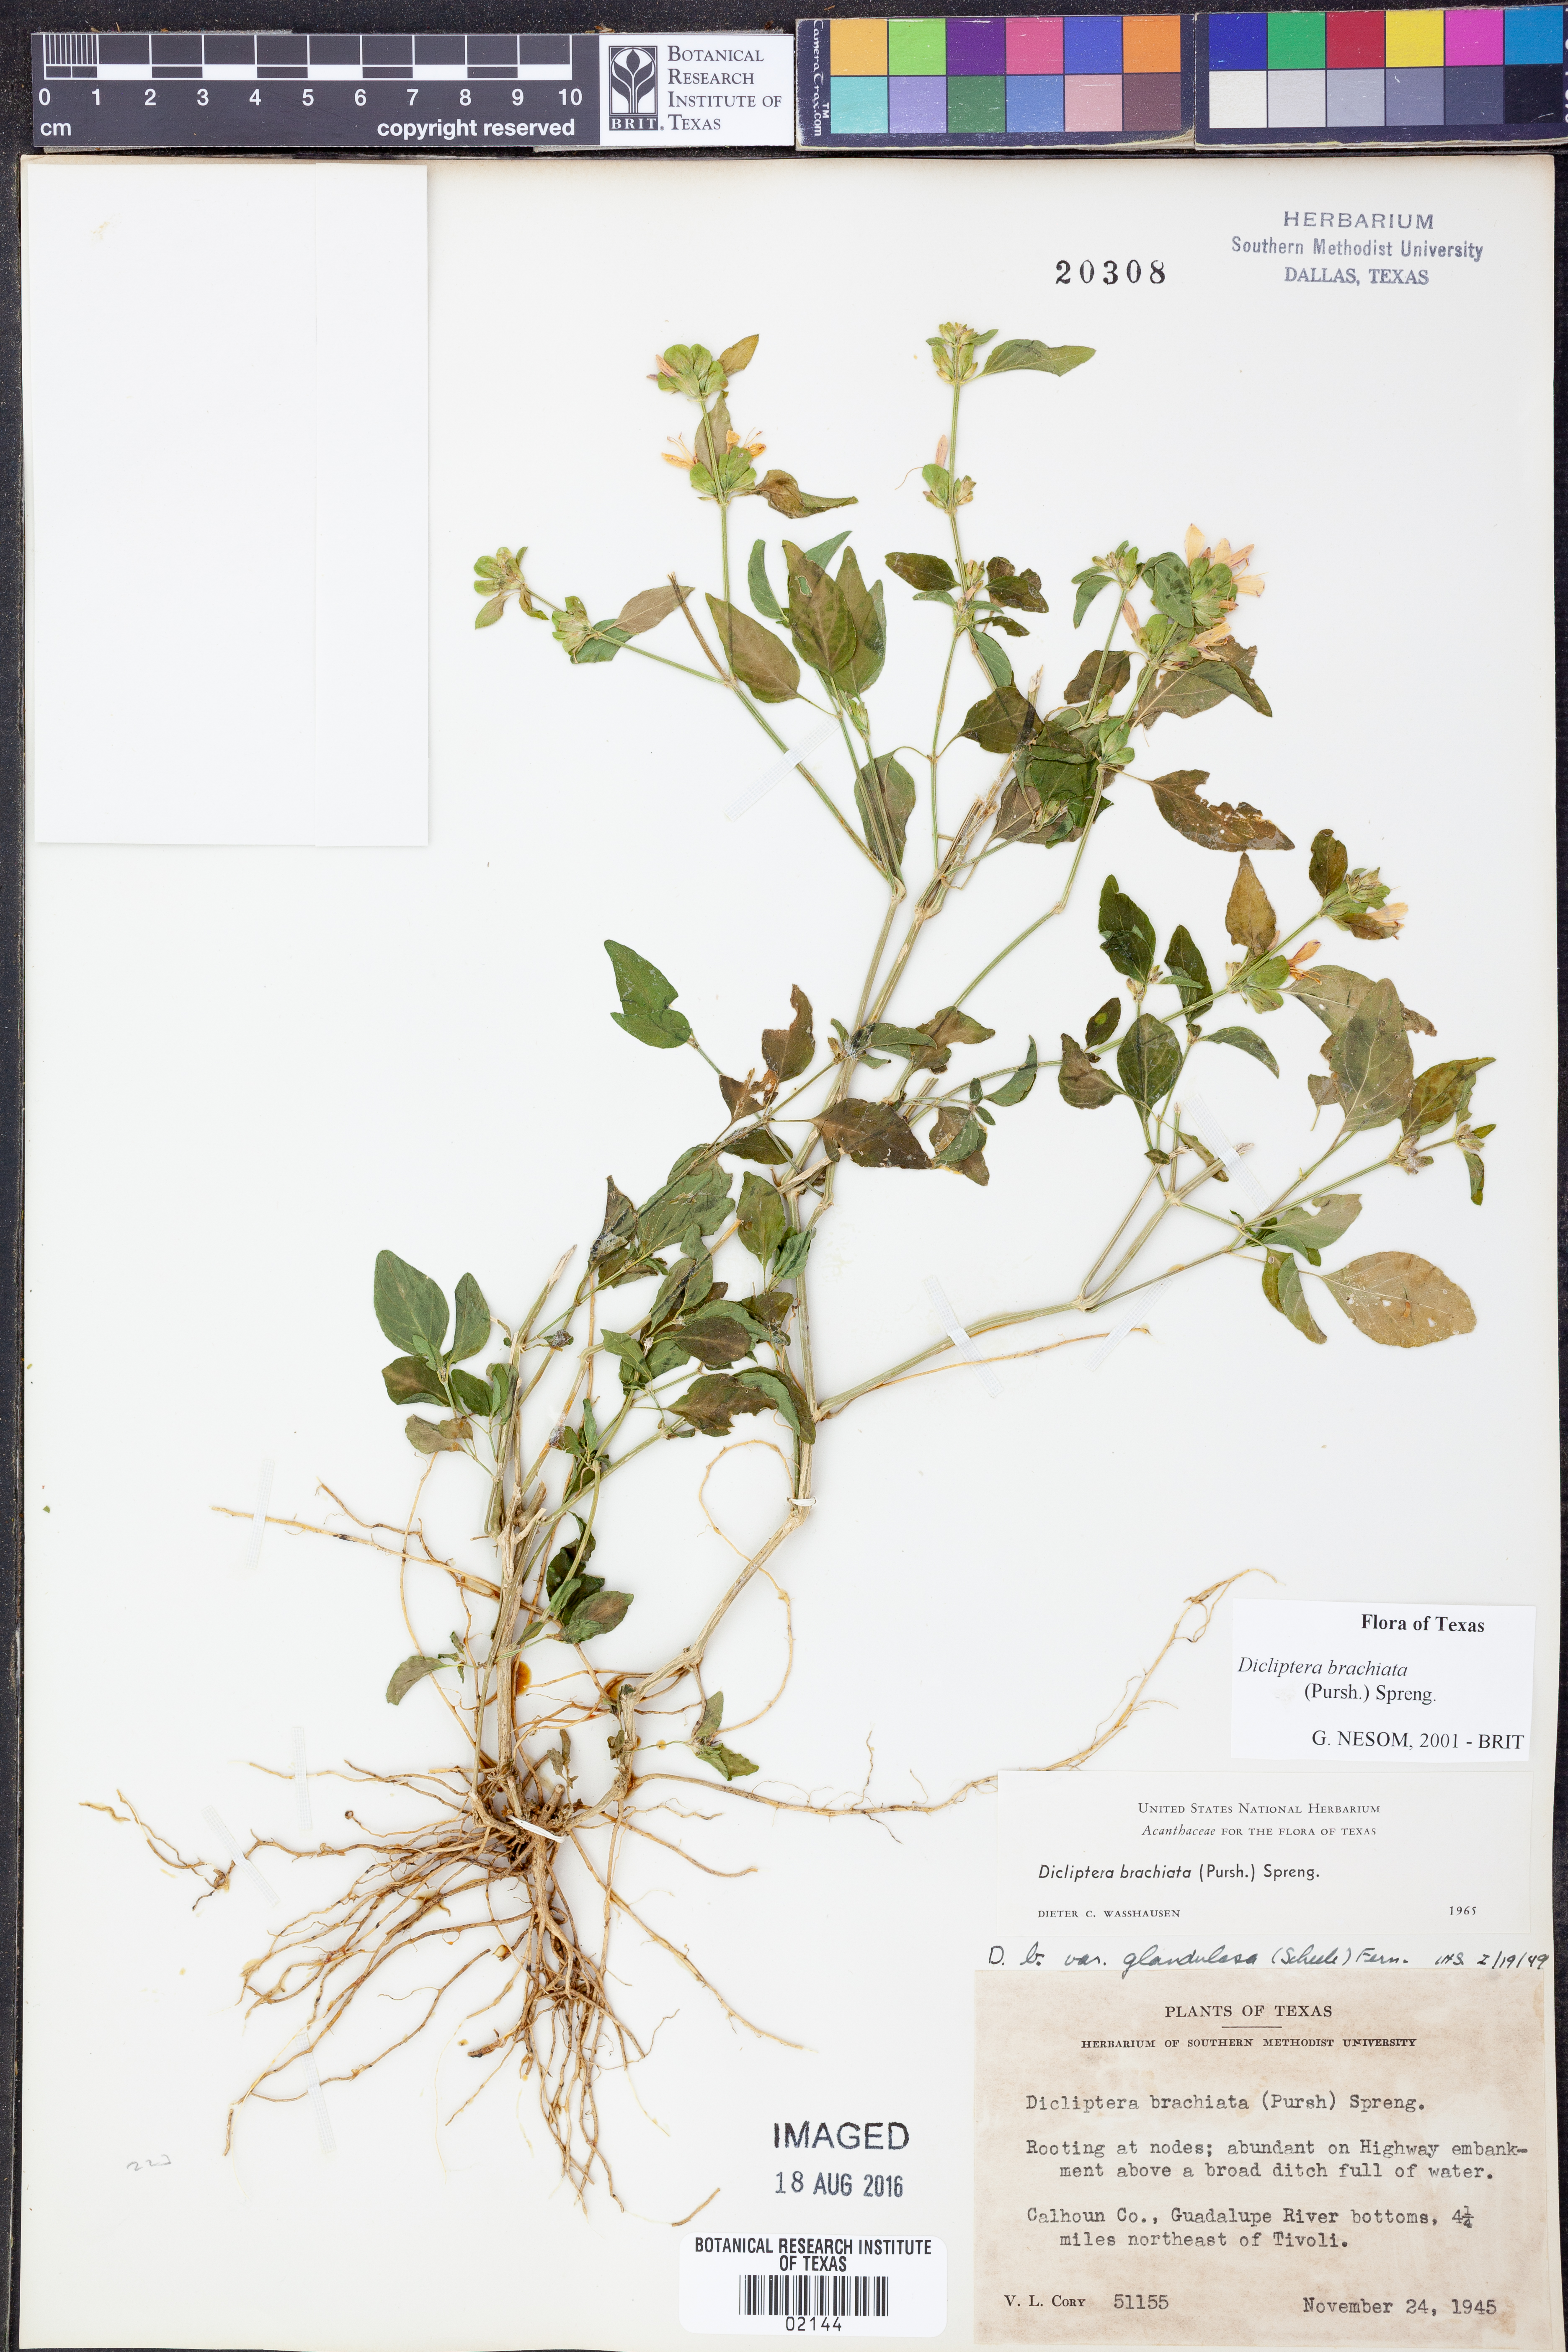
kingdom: Plantae
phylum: Tracheophyta
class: Magnoliopsida
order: Lamiales
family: Acanthaceae
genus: Dicliptera
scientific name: Dicliptera brachiata
